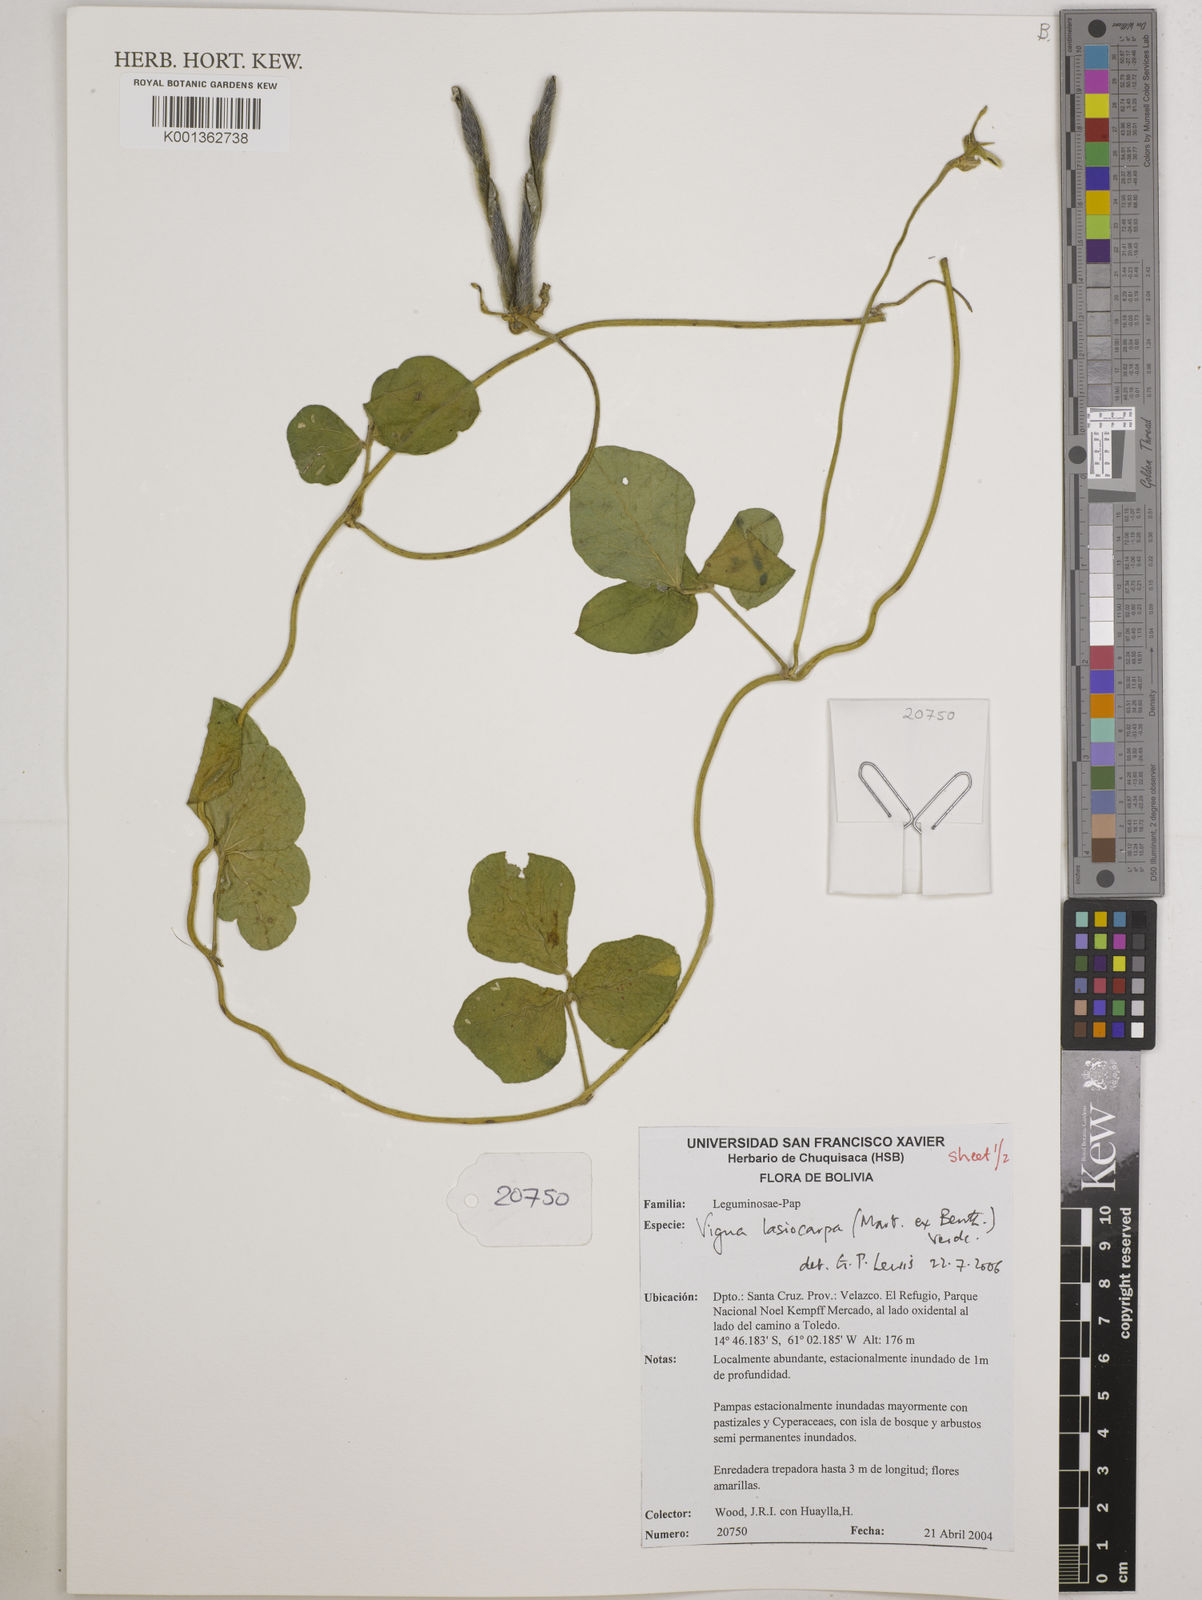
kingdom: Plantae
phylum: Tracheophyta
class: Magnoliopsida
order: Fabales
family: Fabaceae
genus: Vigna
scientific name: Vigna lasiocarpa
